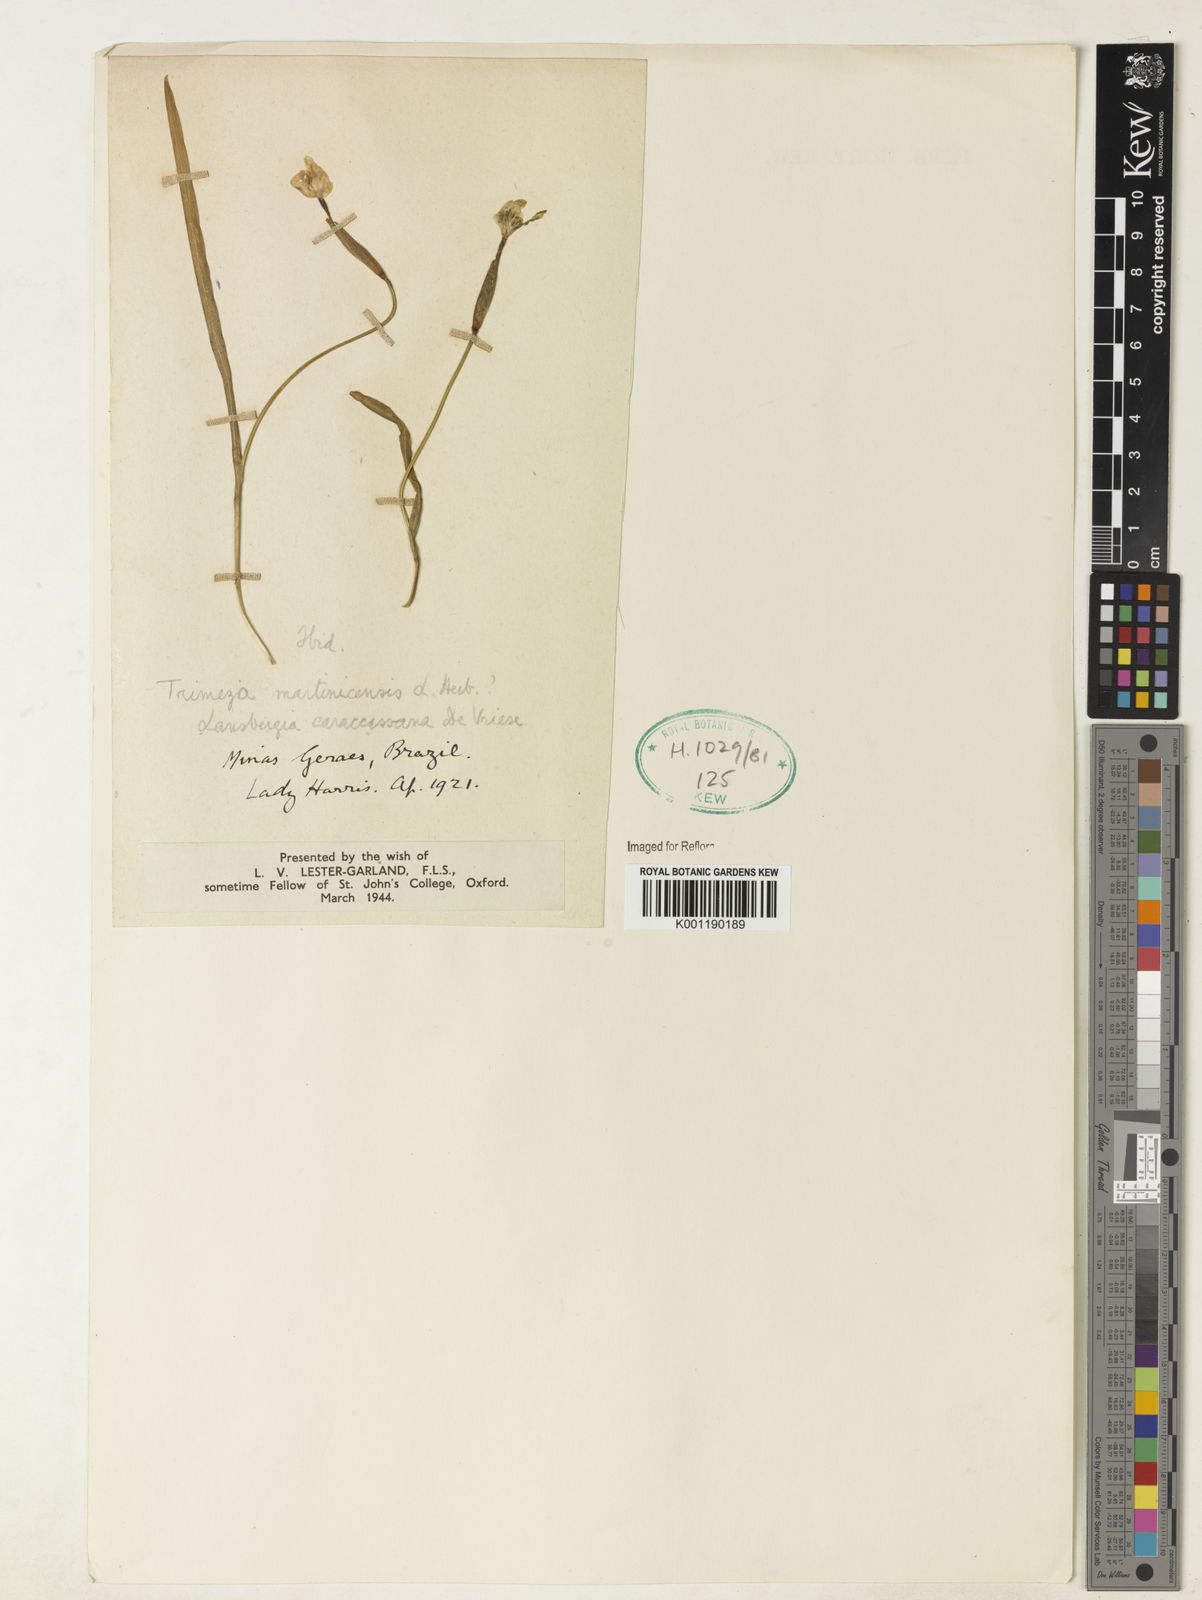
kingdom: Plantae
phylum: Tracheophyta
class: Liliopsida
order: Asparagales
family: Iridaceae
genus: Trimezia
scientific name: Trimezia martinicensis
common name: Martinique trimezia
